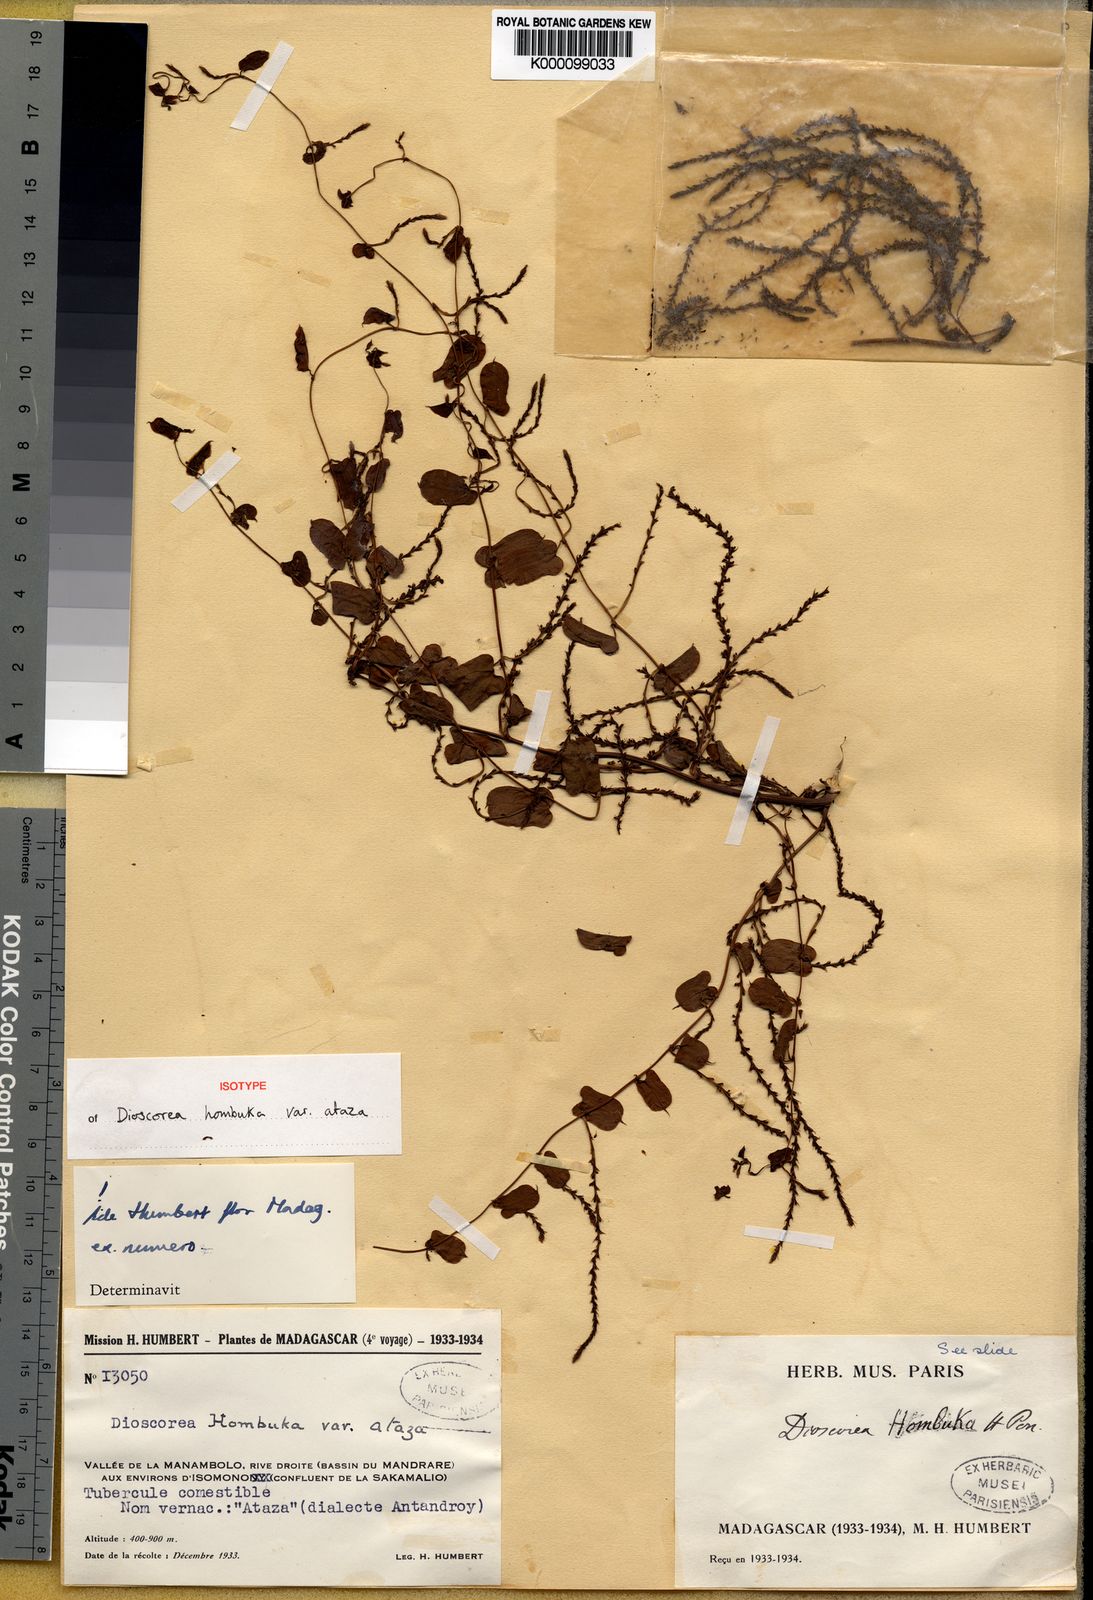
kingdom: Plantae
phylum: Tracheophyta
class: Liliopsida
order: Dioscoreales
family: Dioscoreaceae
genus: Dioscorea
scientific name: Dioscorea hombuka
